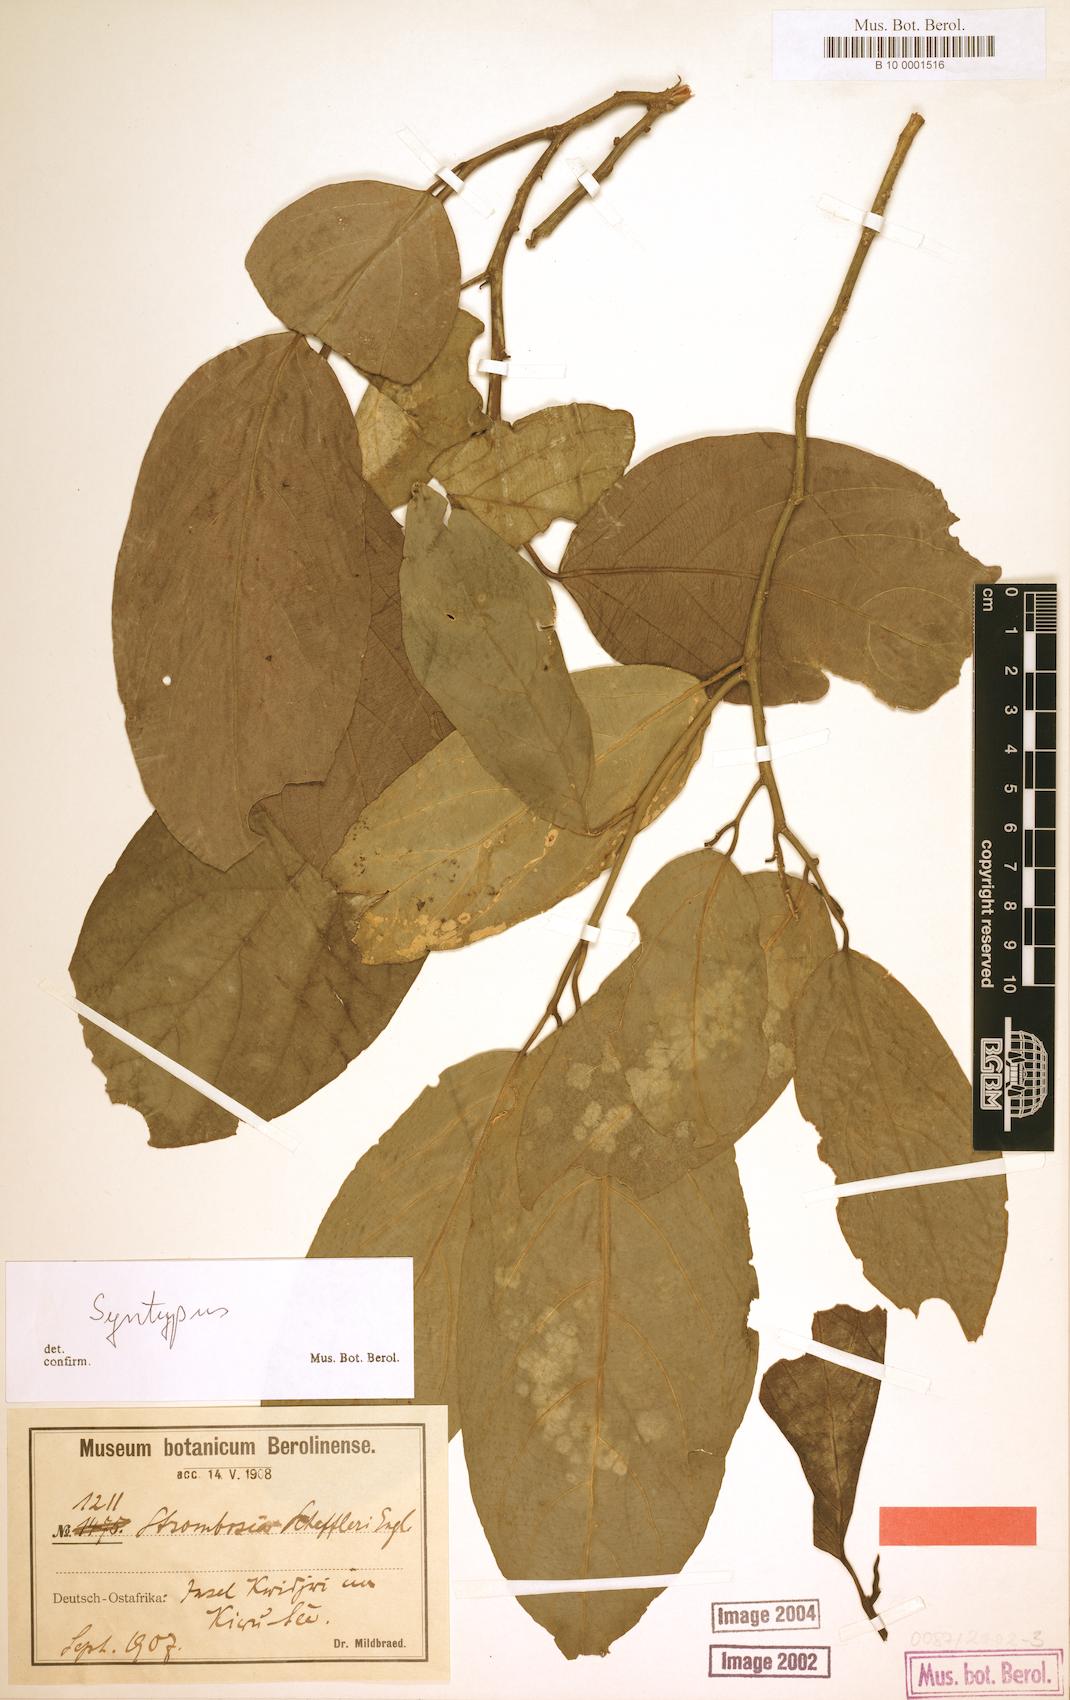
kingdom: Plantae
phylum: Tracheophyta
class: Magnoliopsida
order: Santalales
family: Strombosiaceae
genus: Strombosia
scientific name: Strombosia scheffleri
